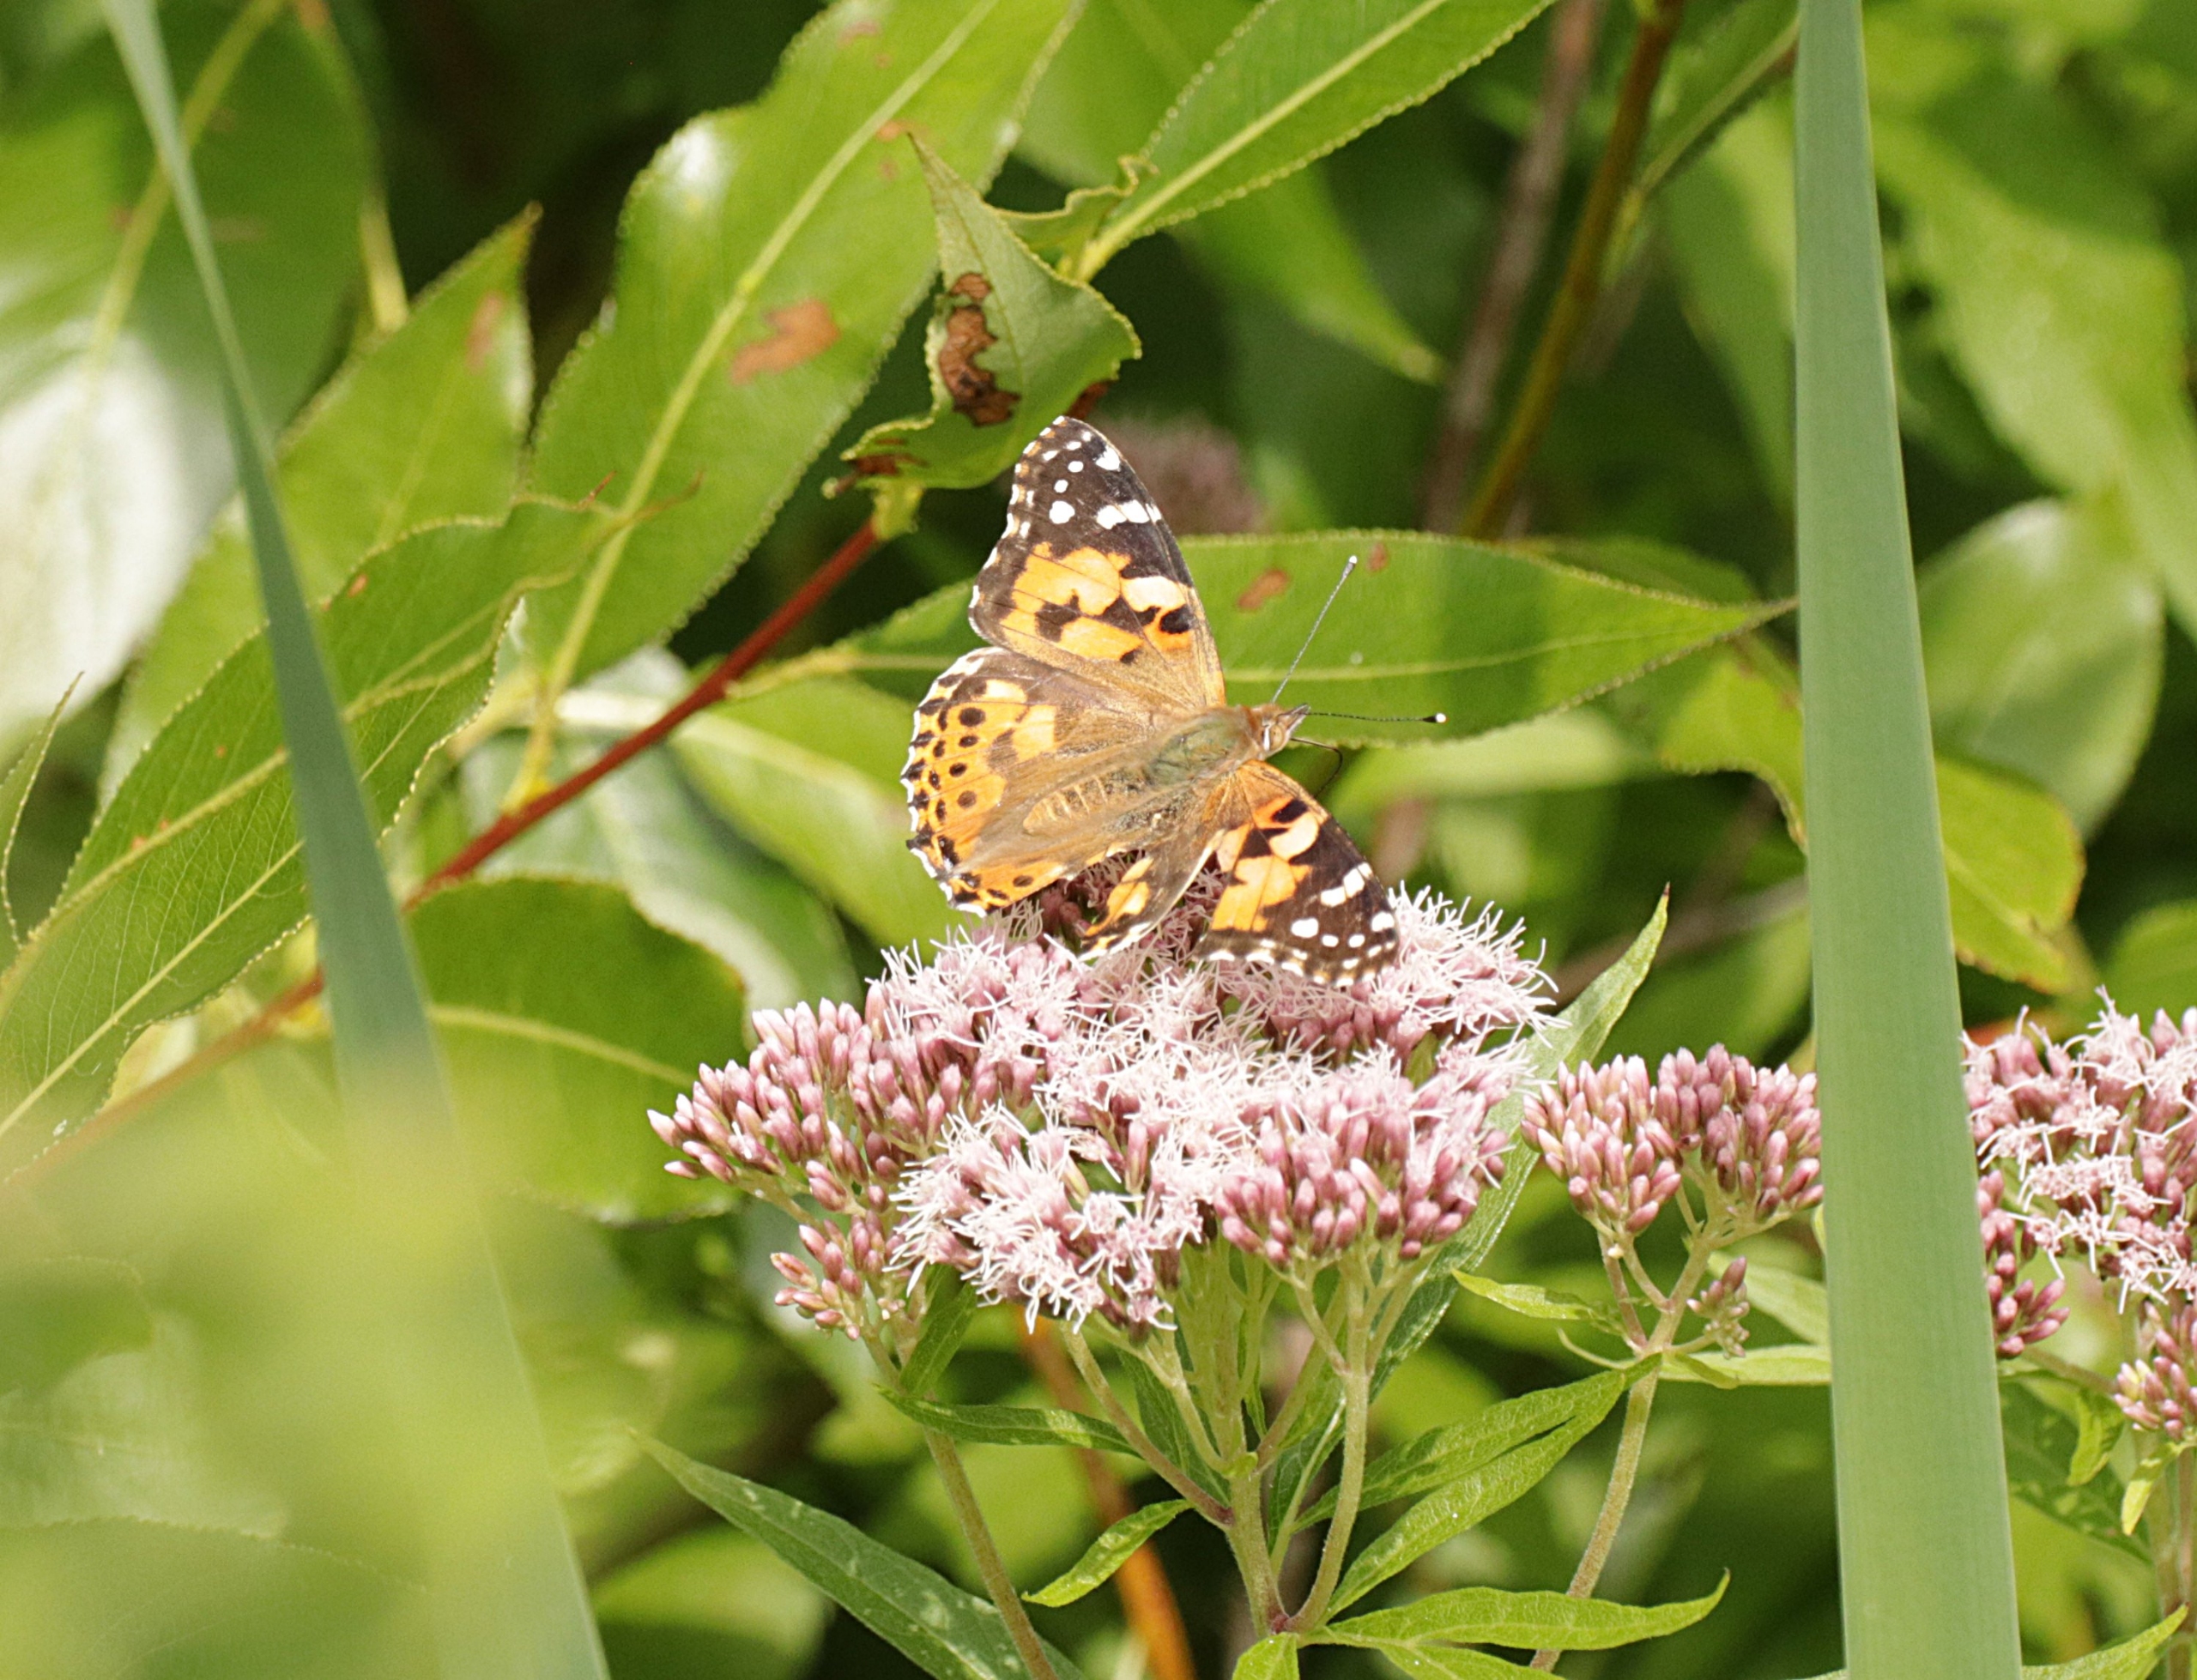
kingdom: Animalia
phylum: Arthropoda
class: Insecta
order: Lepidoptera
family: Nymphalidae
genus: Vanessa
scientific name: Vanessa cardui
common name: Tidselsommerfugl
